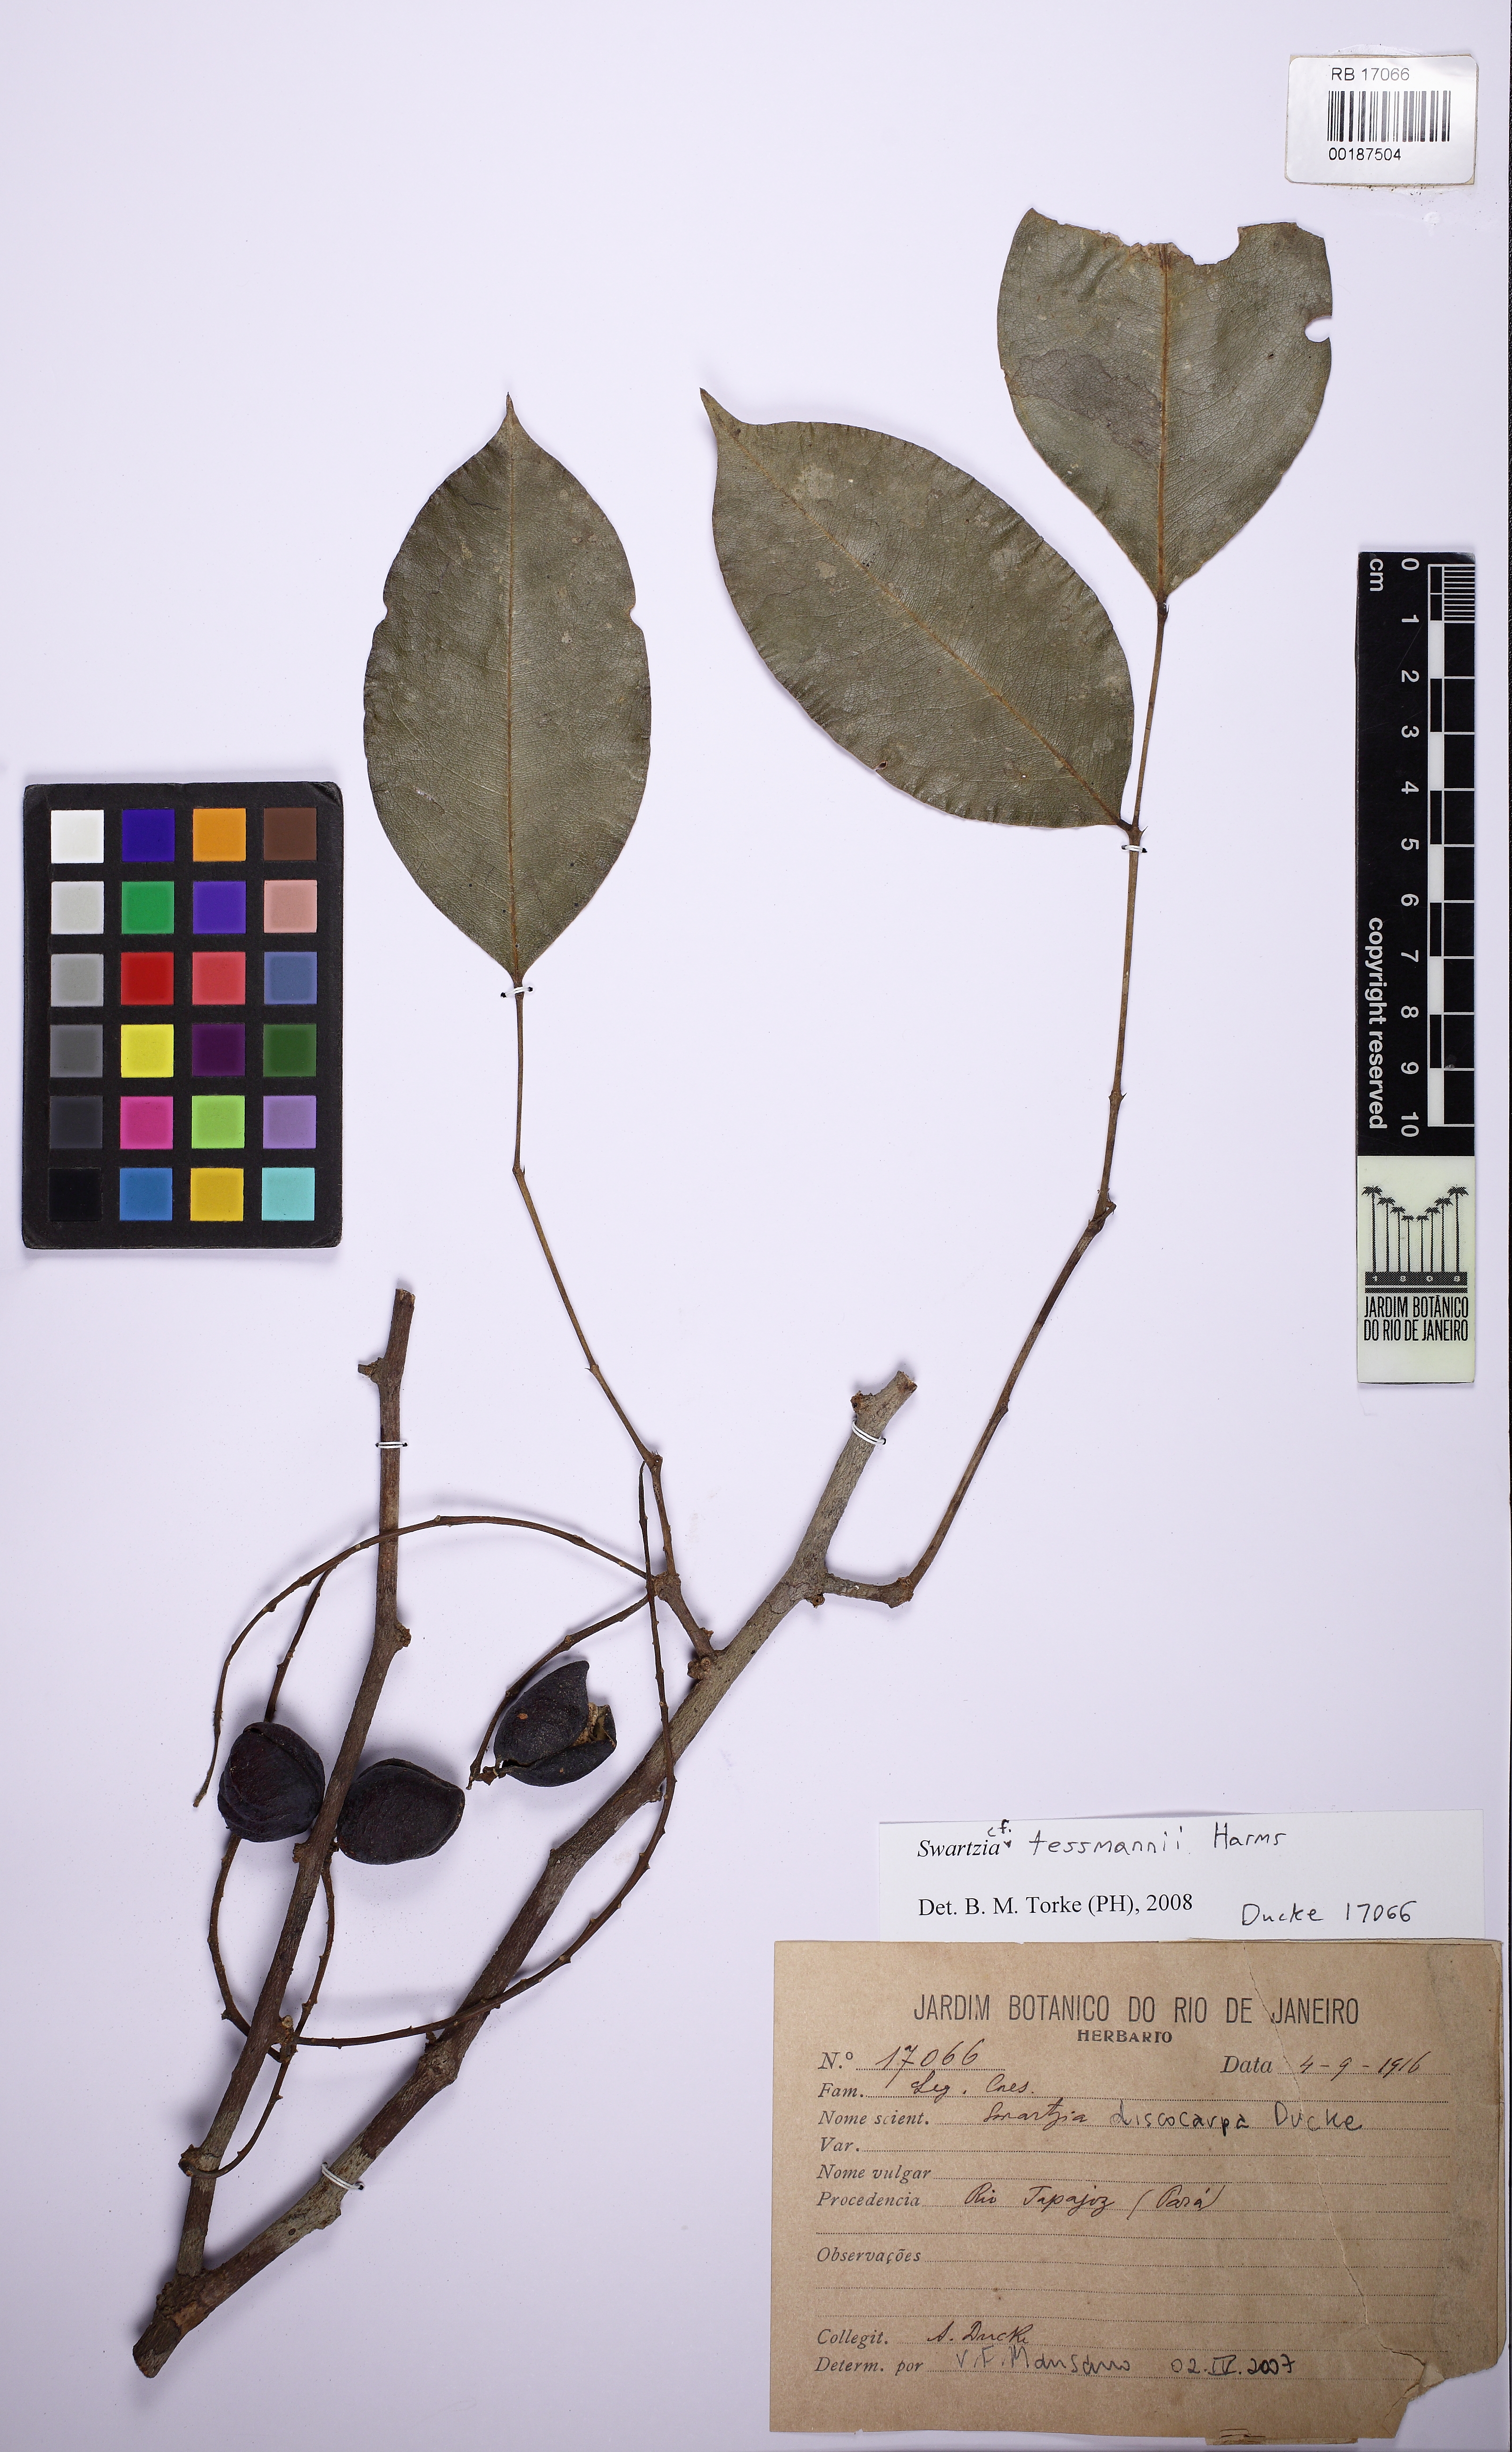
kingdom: Plantae
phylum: Tracheophyta
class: Magnoliopsida
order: Fabales
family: Fabaceae
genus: Swartzia
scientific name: Swartzia tessmannii
